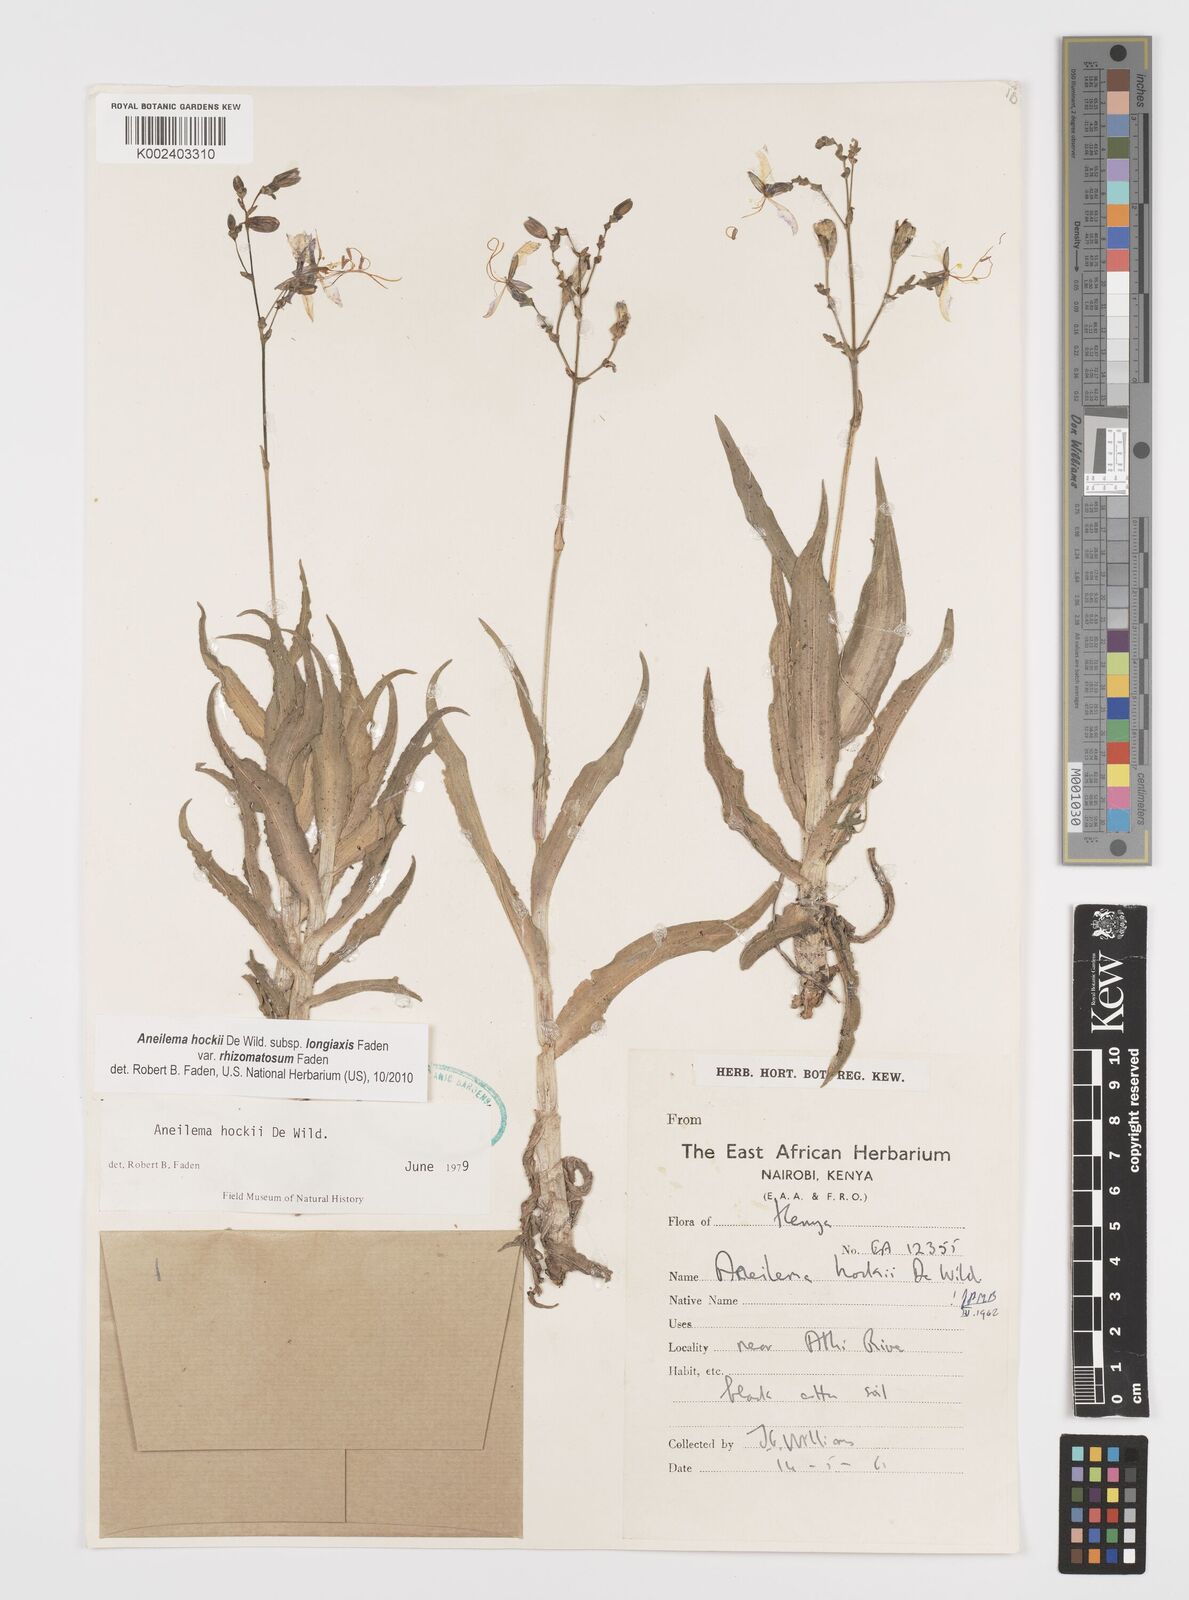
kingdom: Plantae
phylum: Tracheophyta
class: Liliopsida
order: Commelinales
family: Commelinaceae
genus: Aneilema
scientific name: Aneilema hockii
